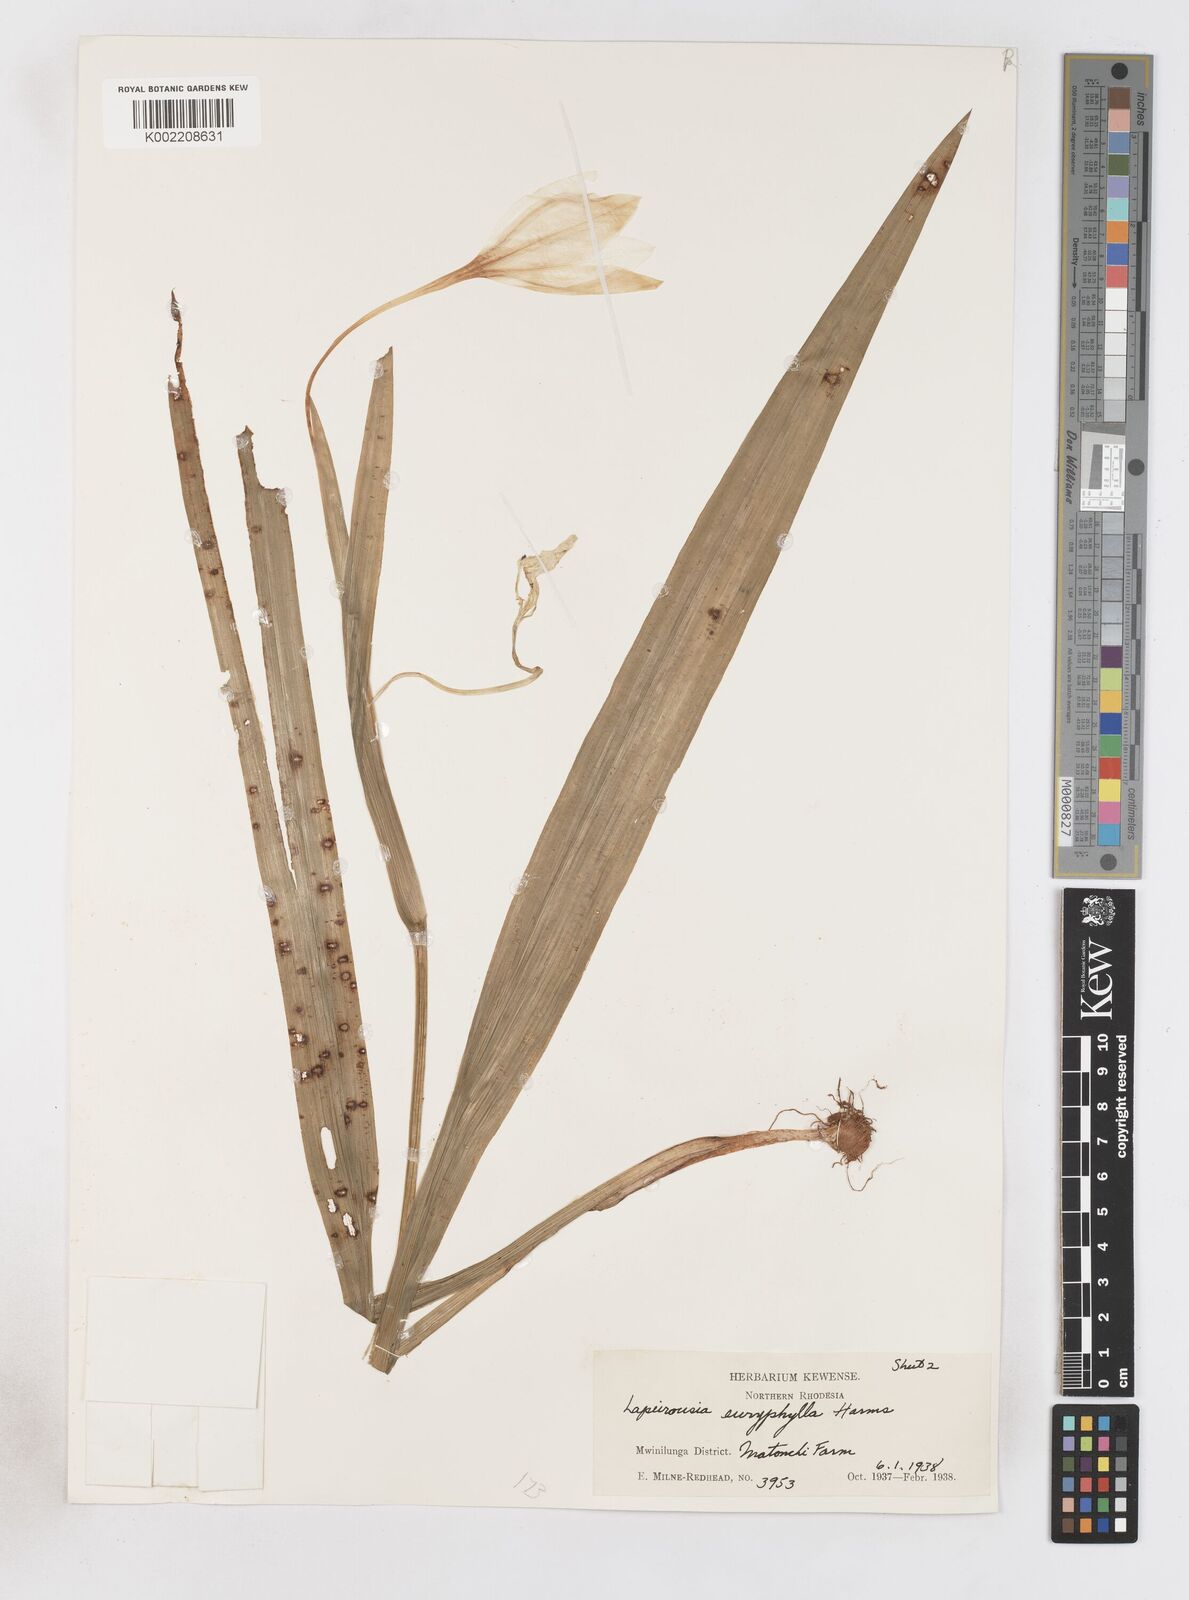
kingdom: Plantae
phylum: Tracheophyta
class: Liliopsida
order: Asparagales
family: Iridaceae
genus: Savannosiphon
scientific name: Savannosiphon euryphylla
